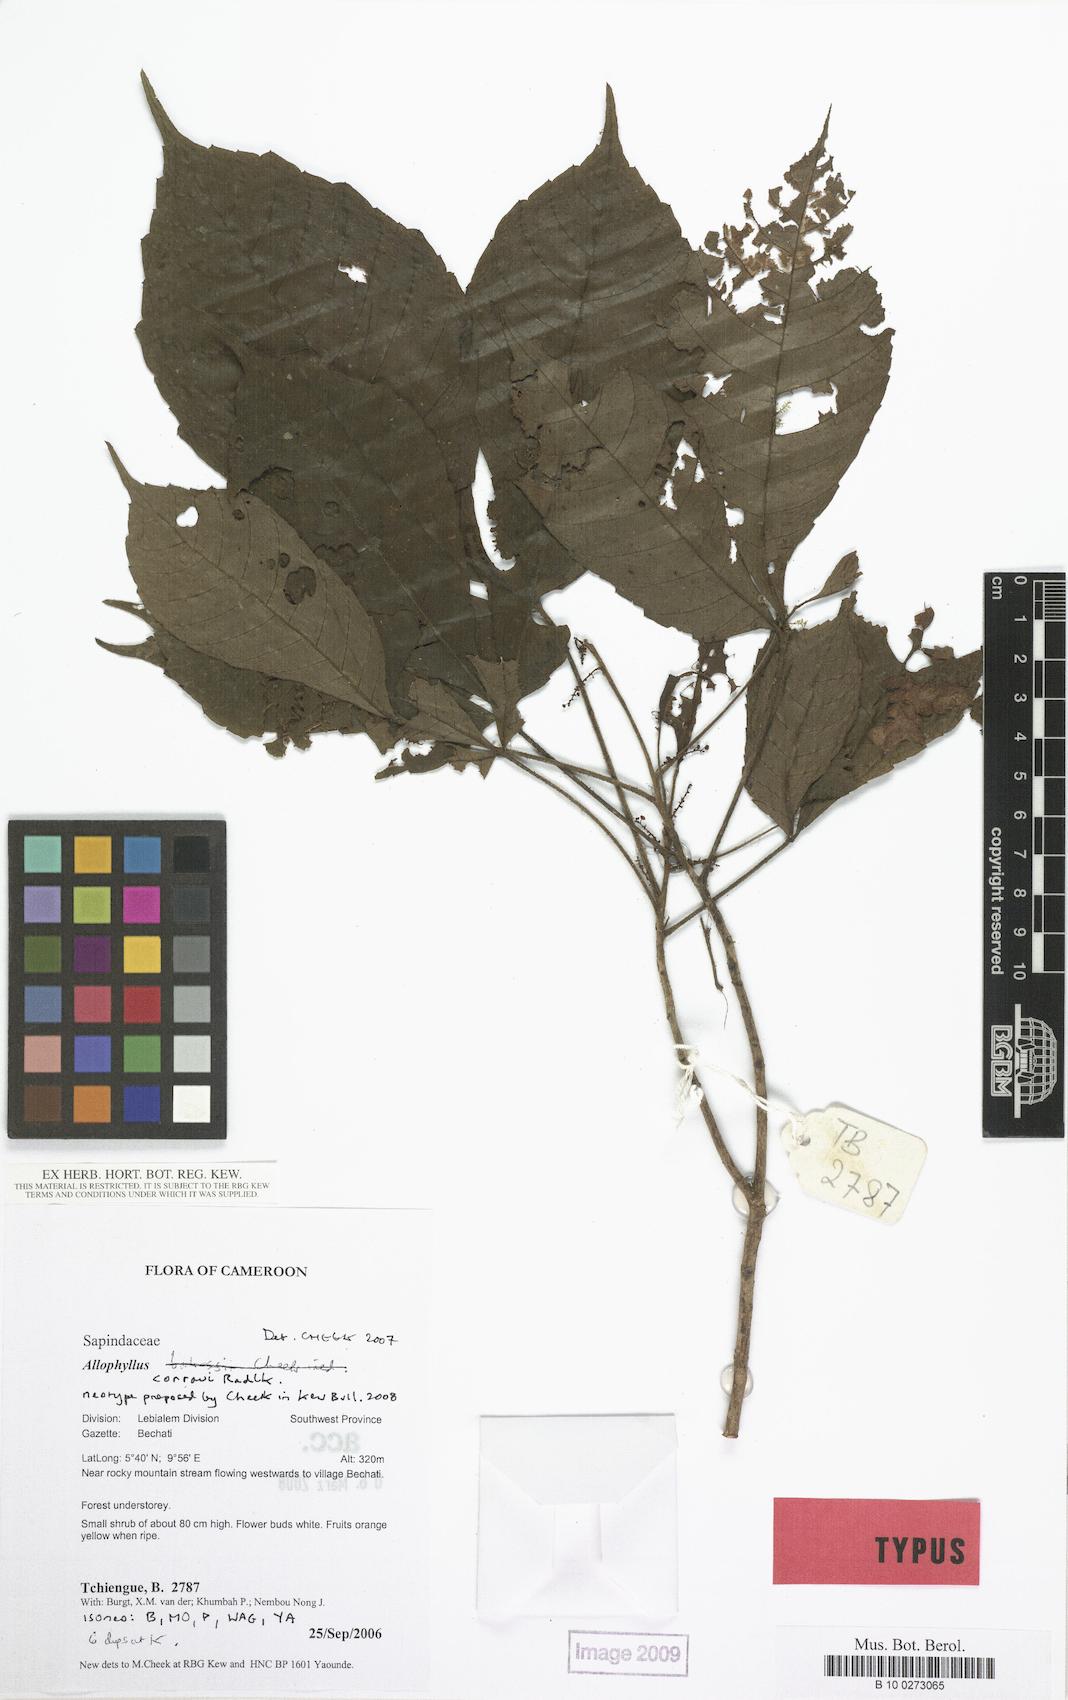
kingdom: Plantae
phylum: Tracheophyta
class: Magnoliopsida
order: Sapindales
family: Sapindaceae
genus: Allophylus
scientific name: Allophylus conraui
